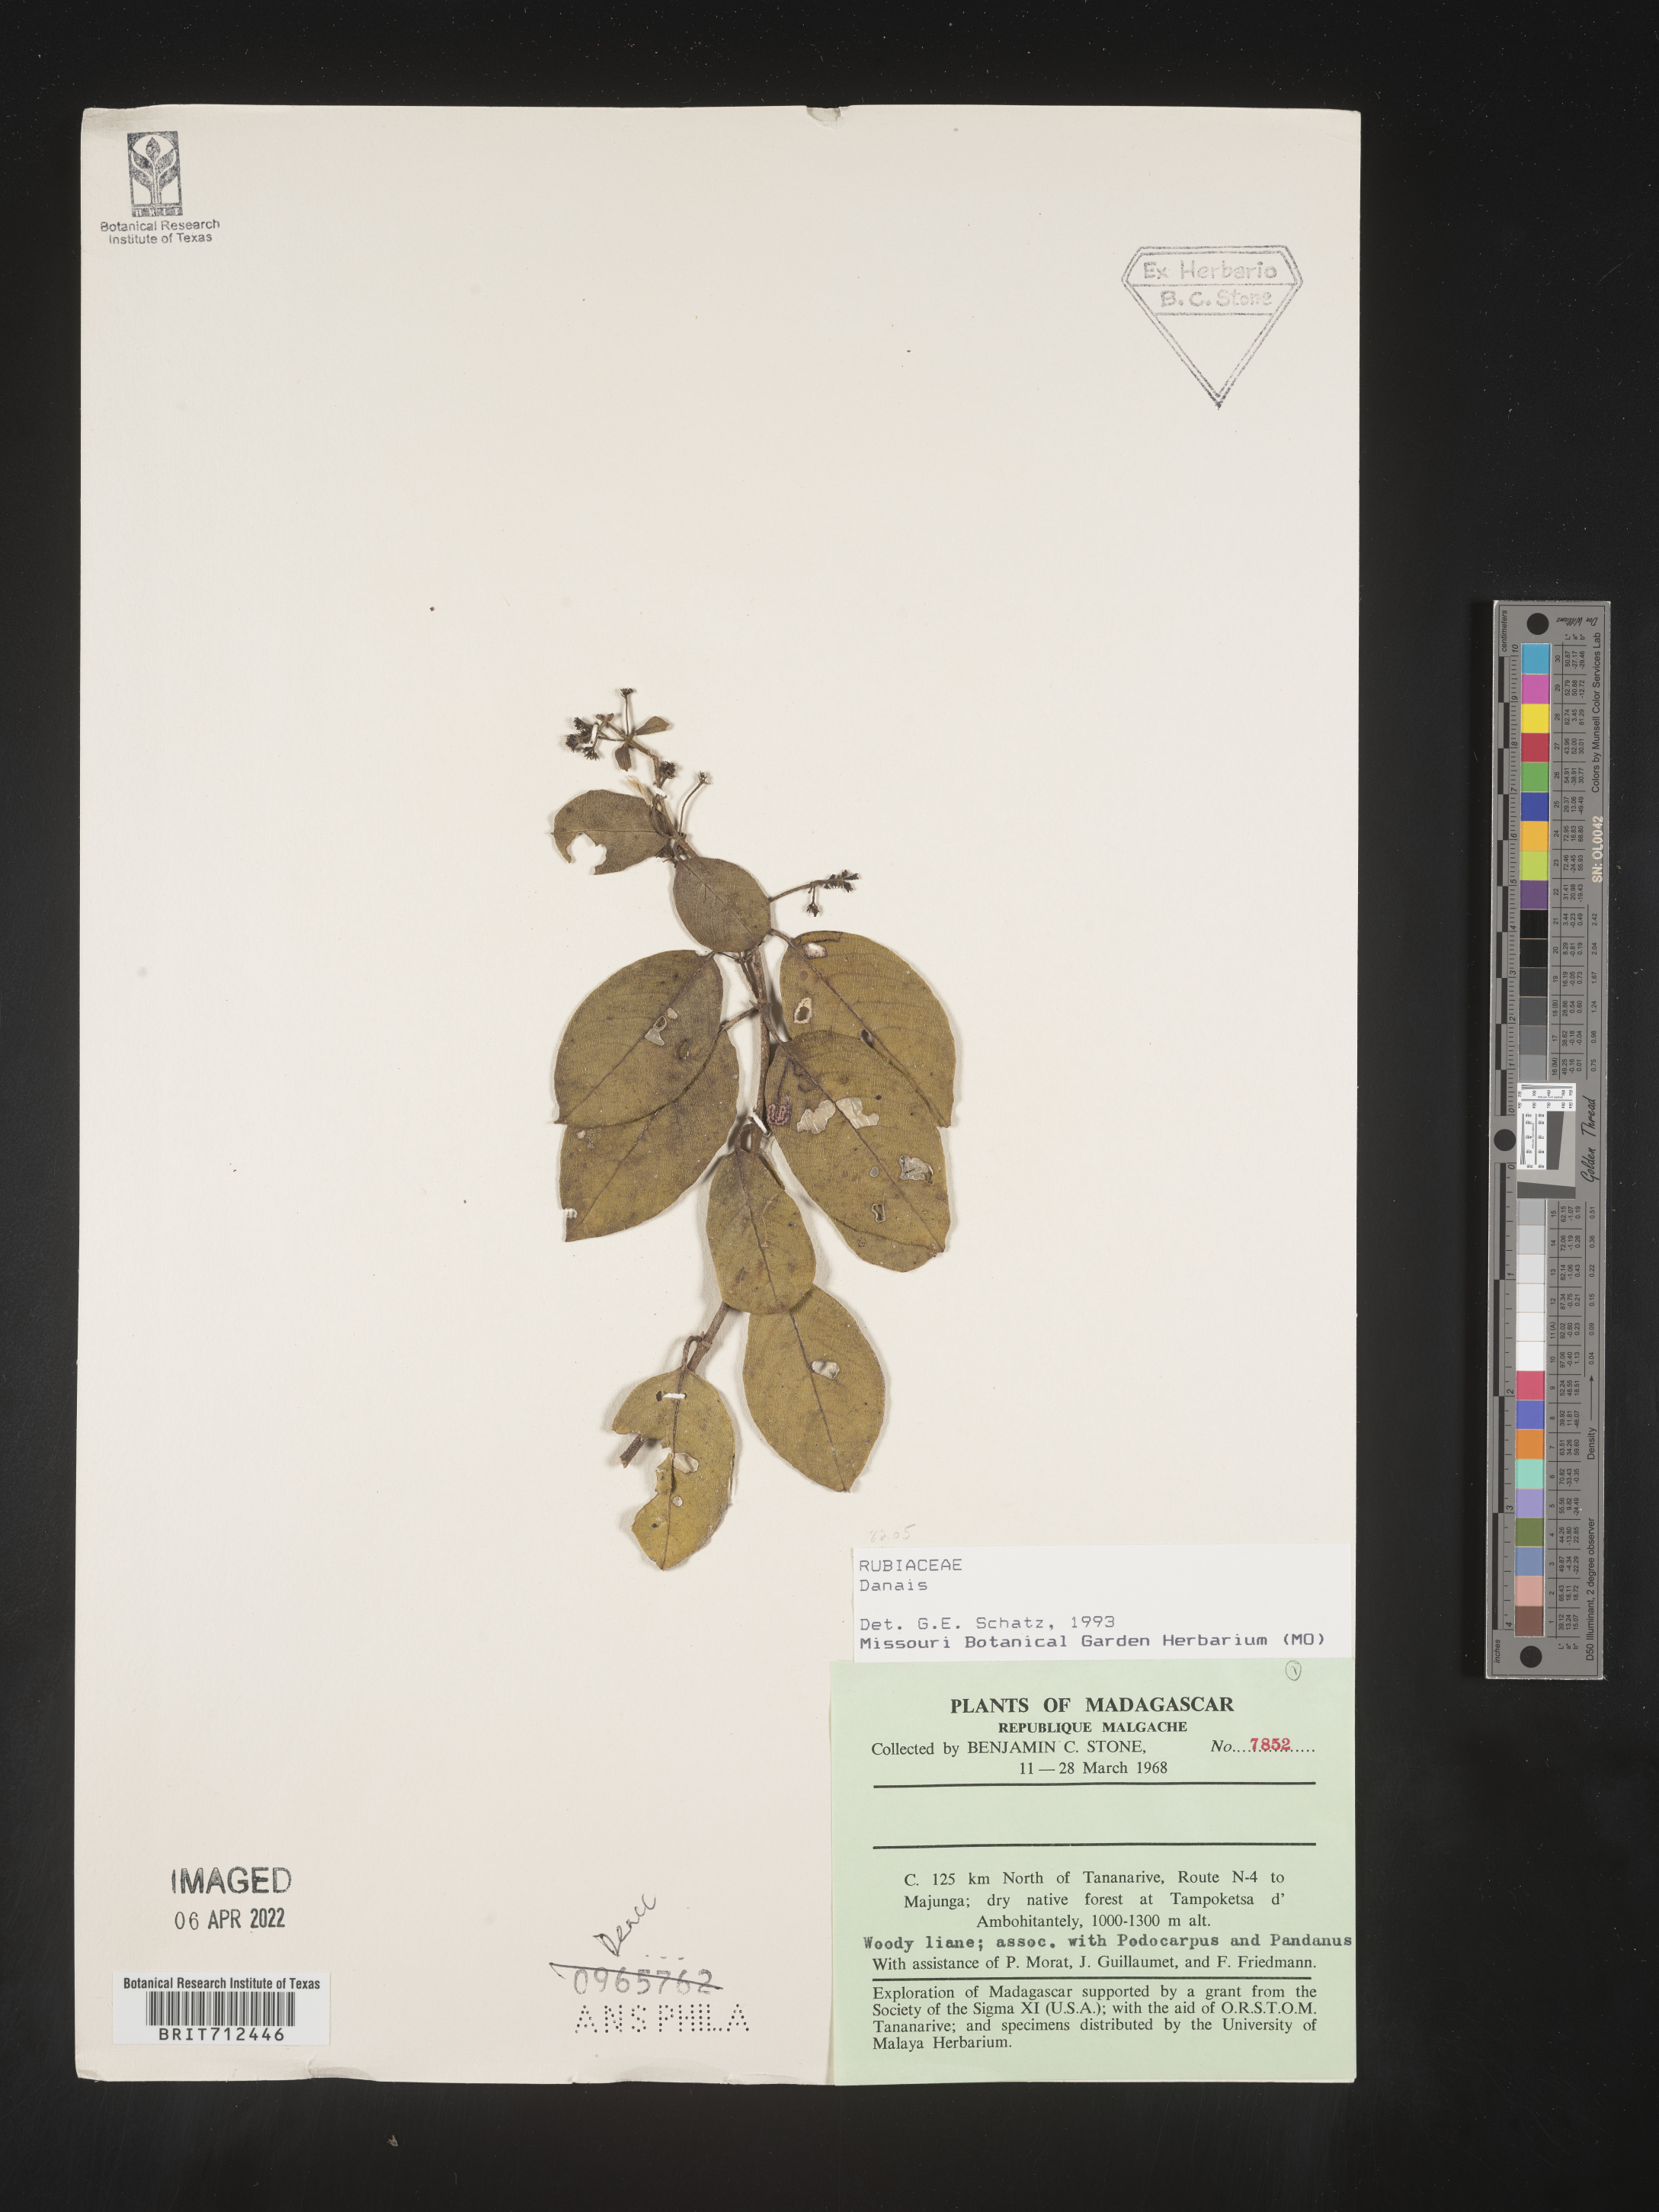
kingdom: Plantae
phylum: Tracheophyta
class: Magnoliopsida
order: Gentianales
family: Rubiaceae
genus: Danais
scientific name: Danais
